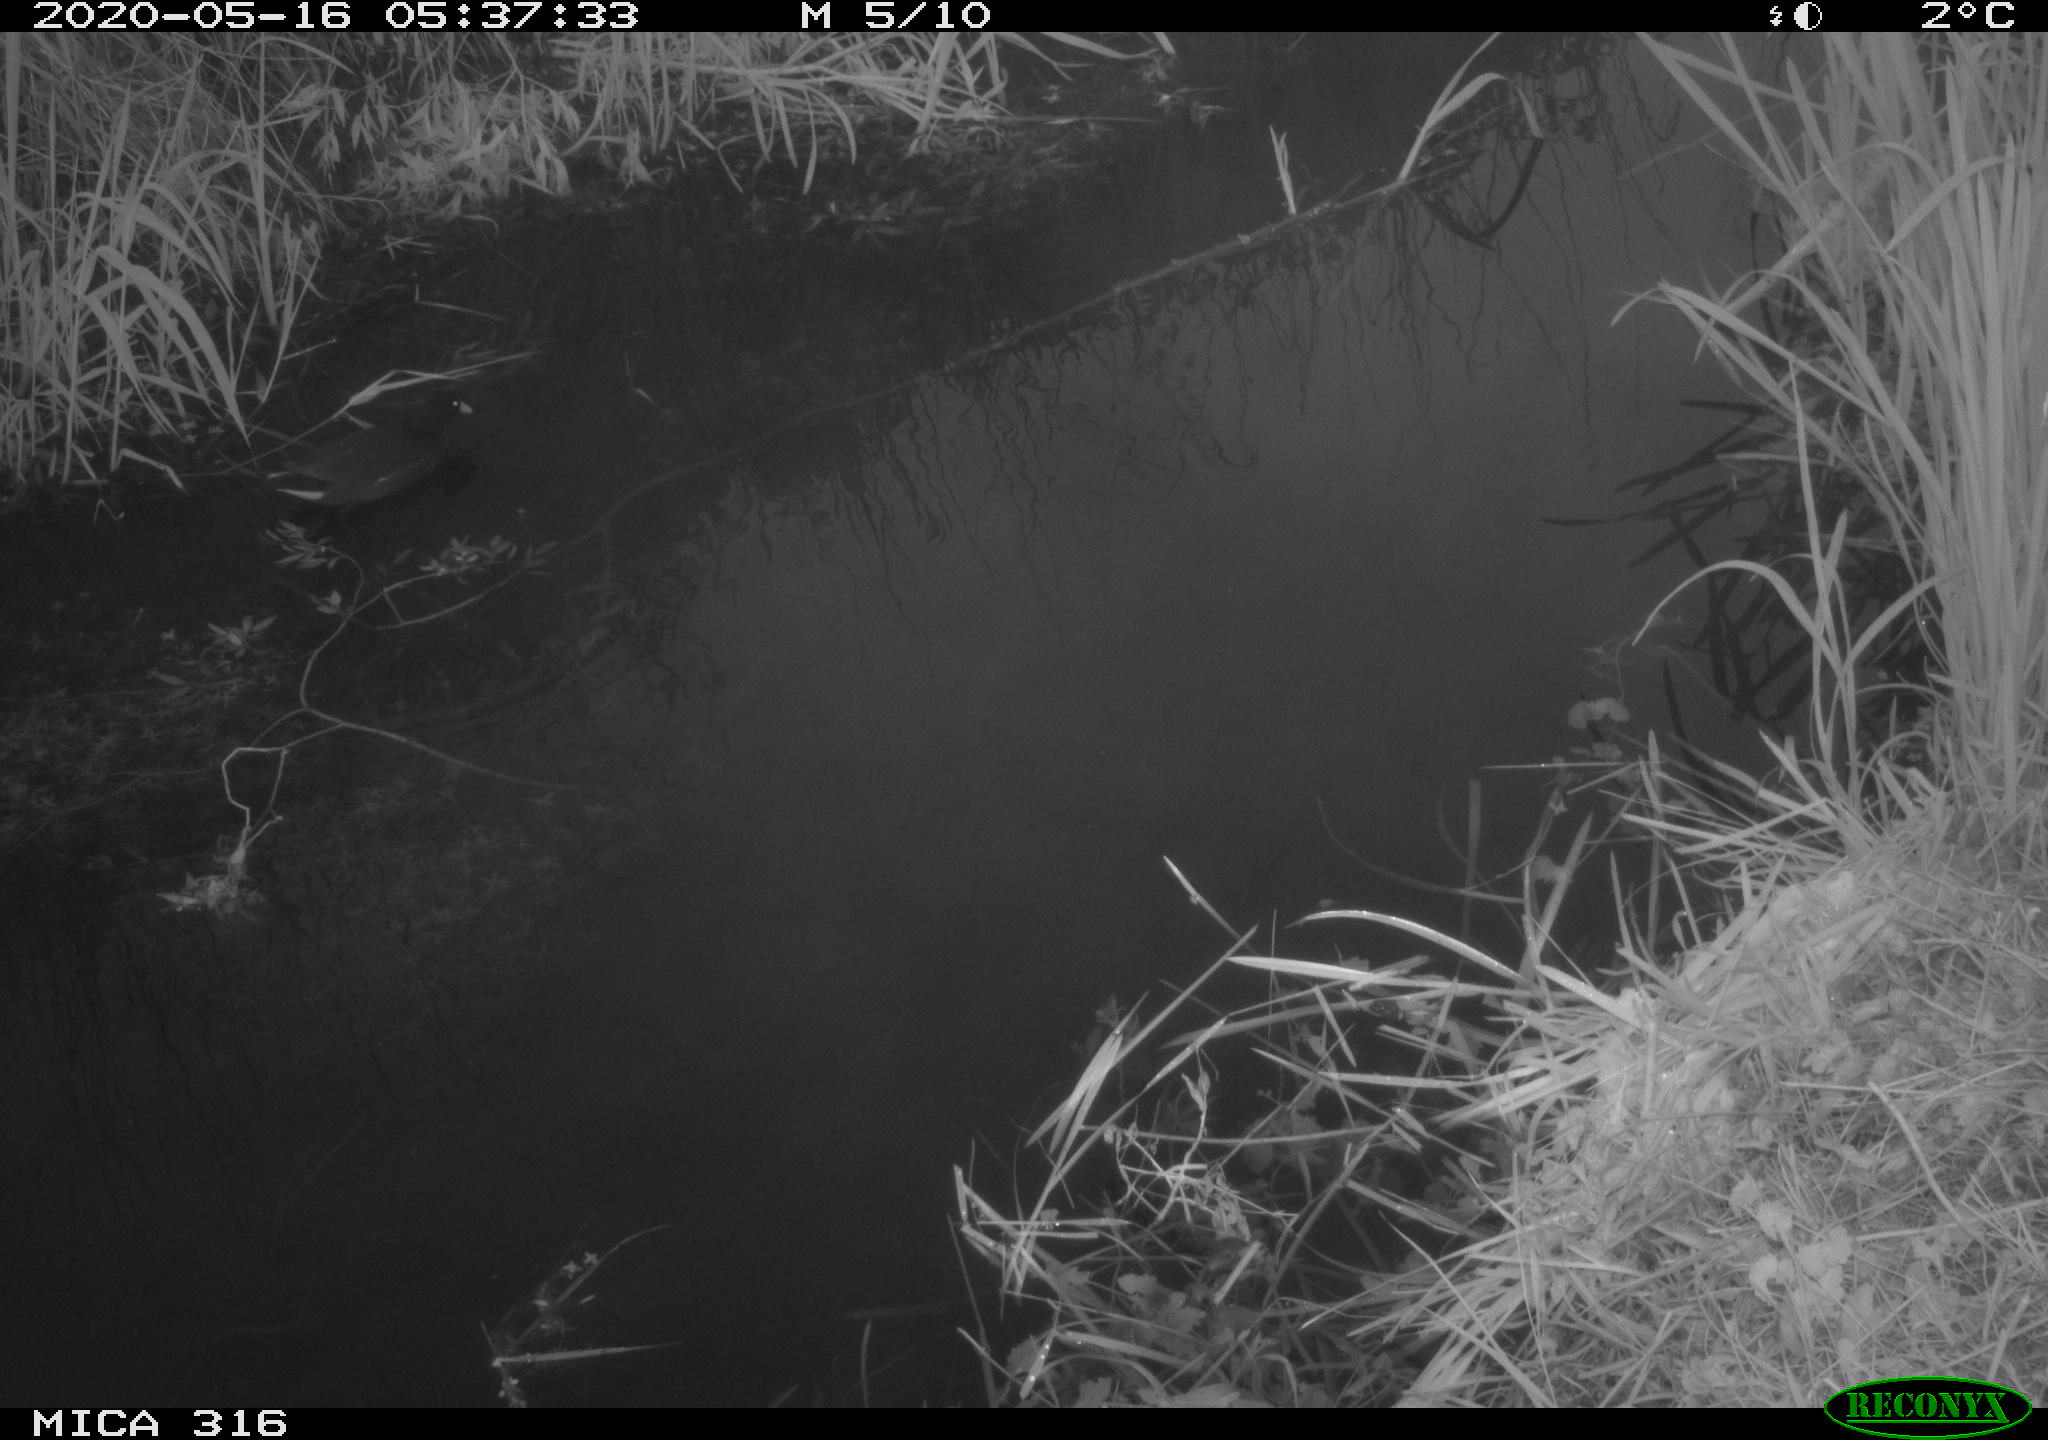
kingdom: Animalia
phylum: Chordata
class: Aves
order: Gruiformes
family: Rallidae
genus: Gallinula
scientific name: Gallinula chloropus
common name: Common moorhen
